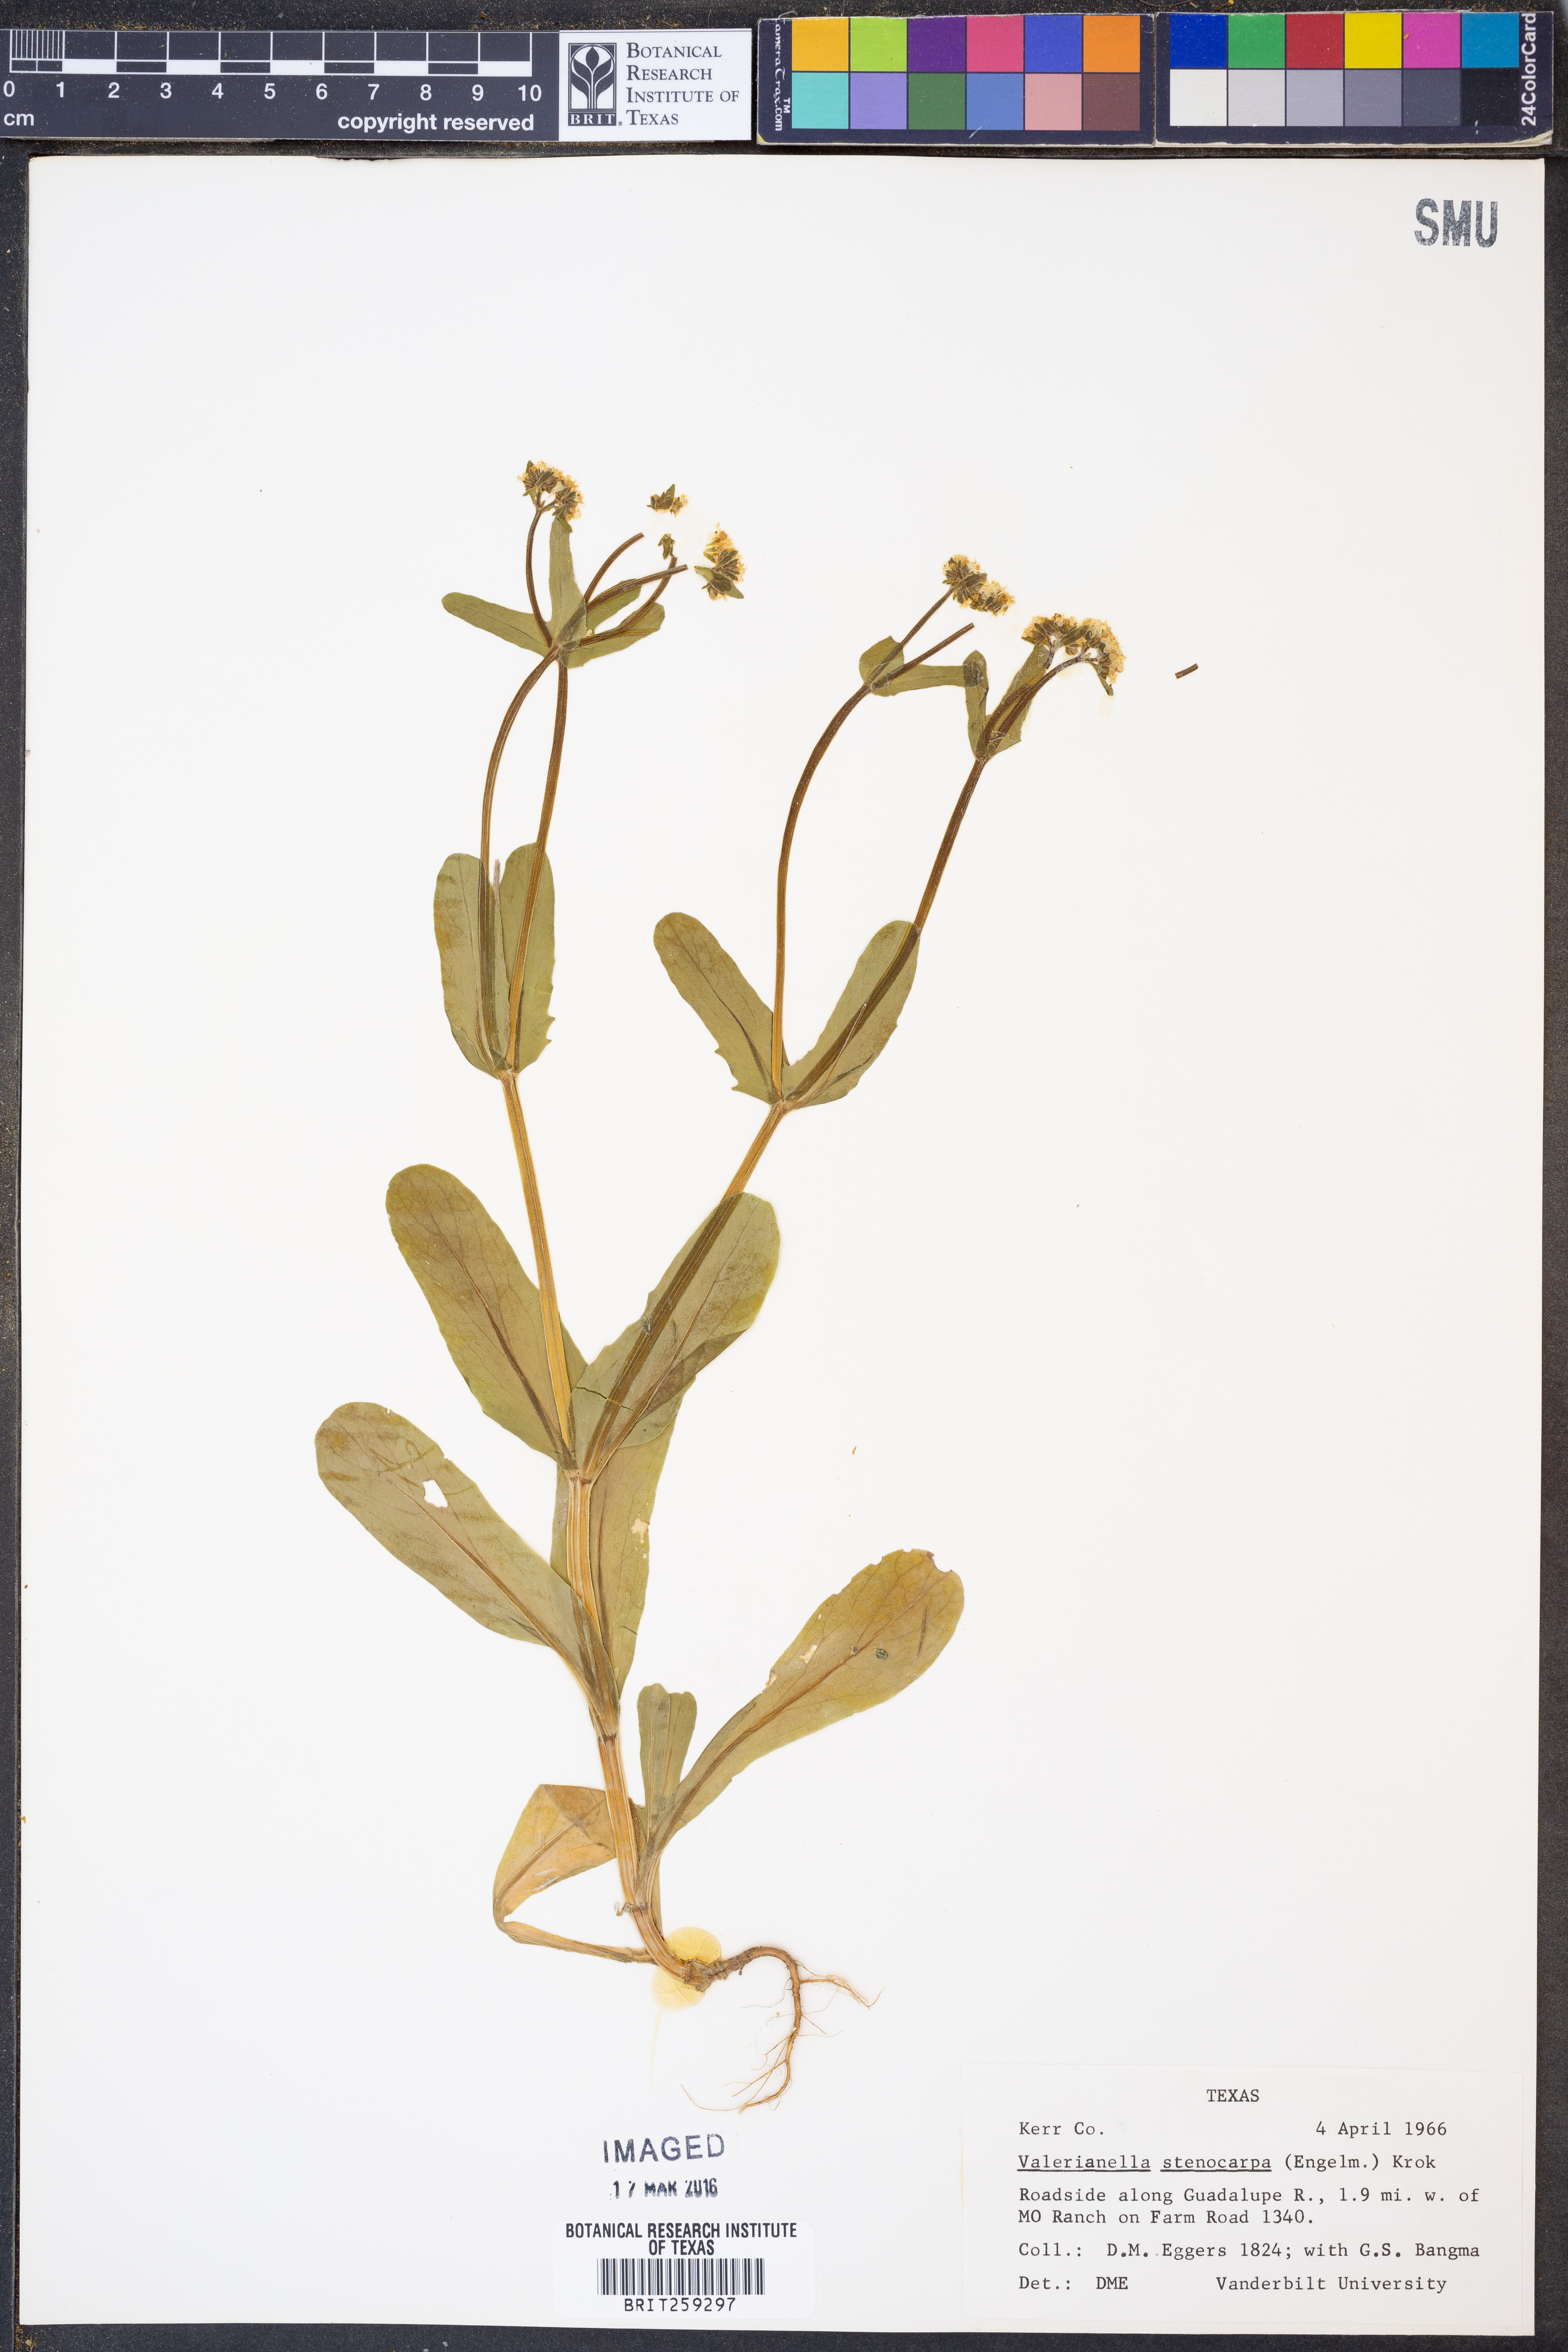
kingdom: Plantae
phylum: Tracheophyta
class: Magnoliopsida
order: Dipsacales
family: Caprifoliaceae
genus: Valerianella
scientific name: Valerianella stenocarpa
